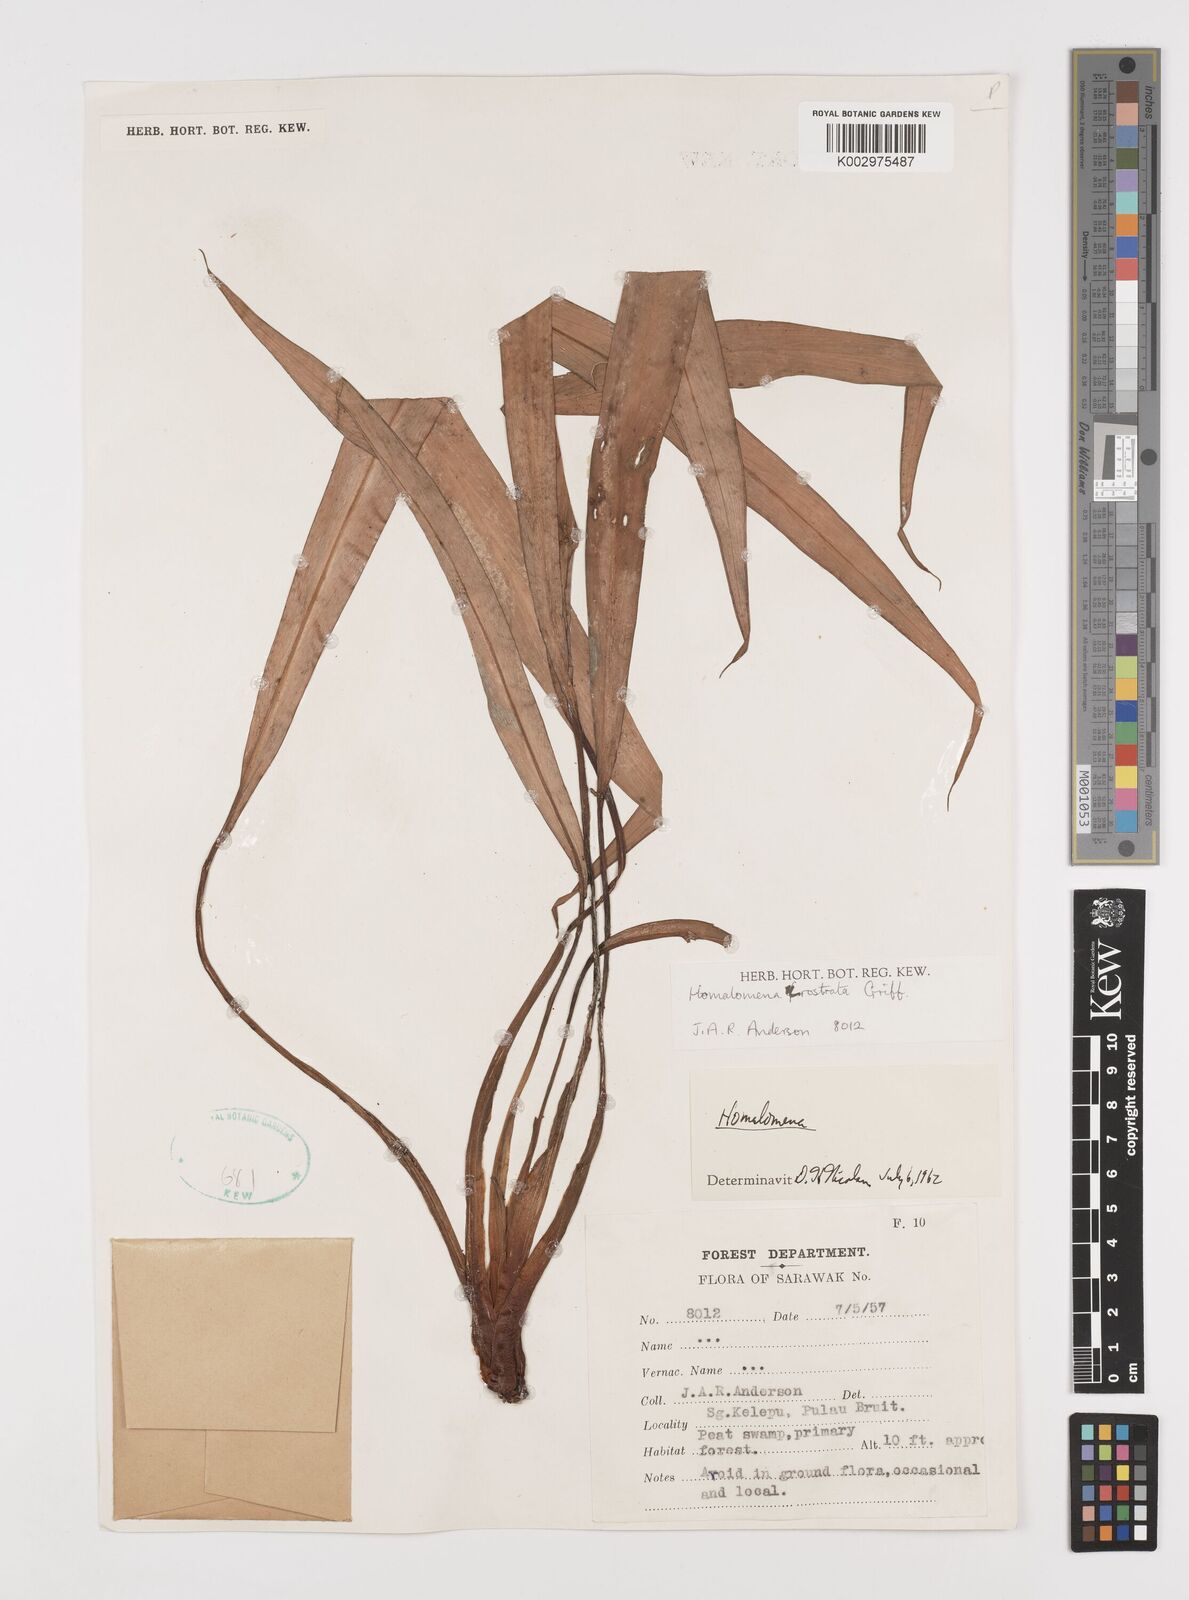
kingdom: Plantae
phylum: Tracheophyta
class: Liliopsida
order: Alismatales
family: Araceae
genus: Homalomena
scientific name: Homalomena rostrata
